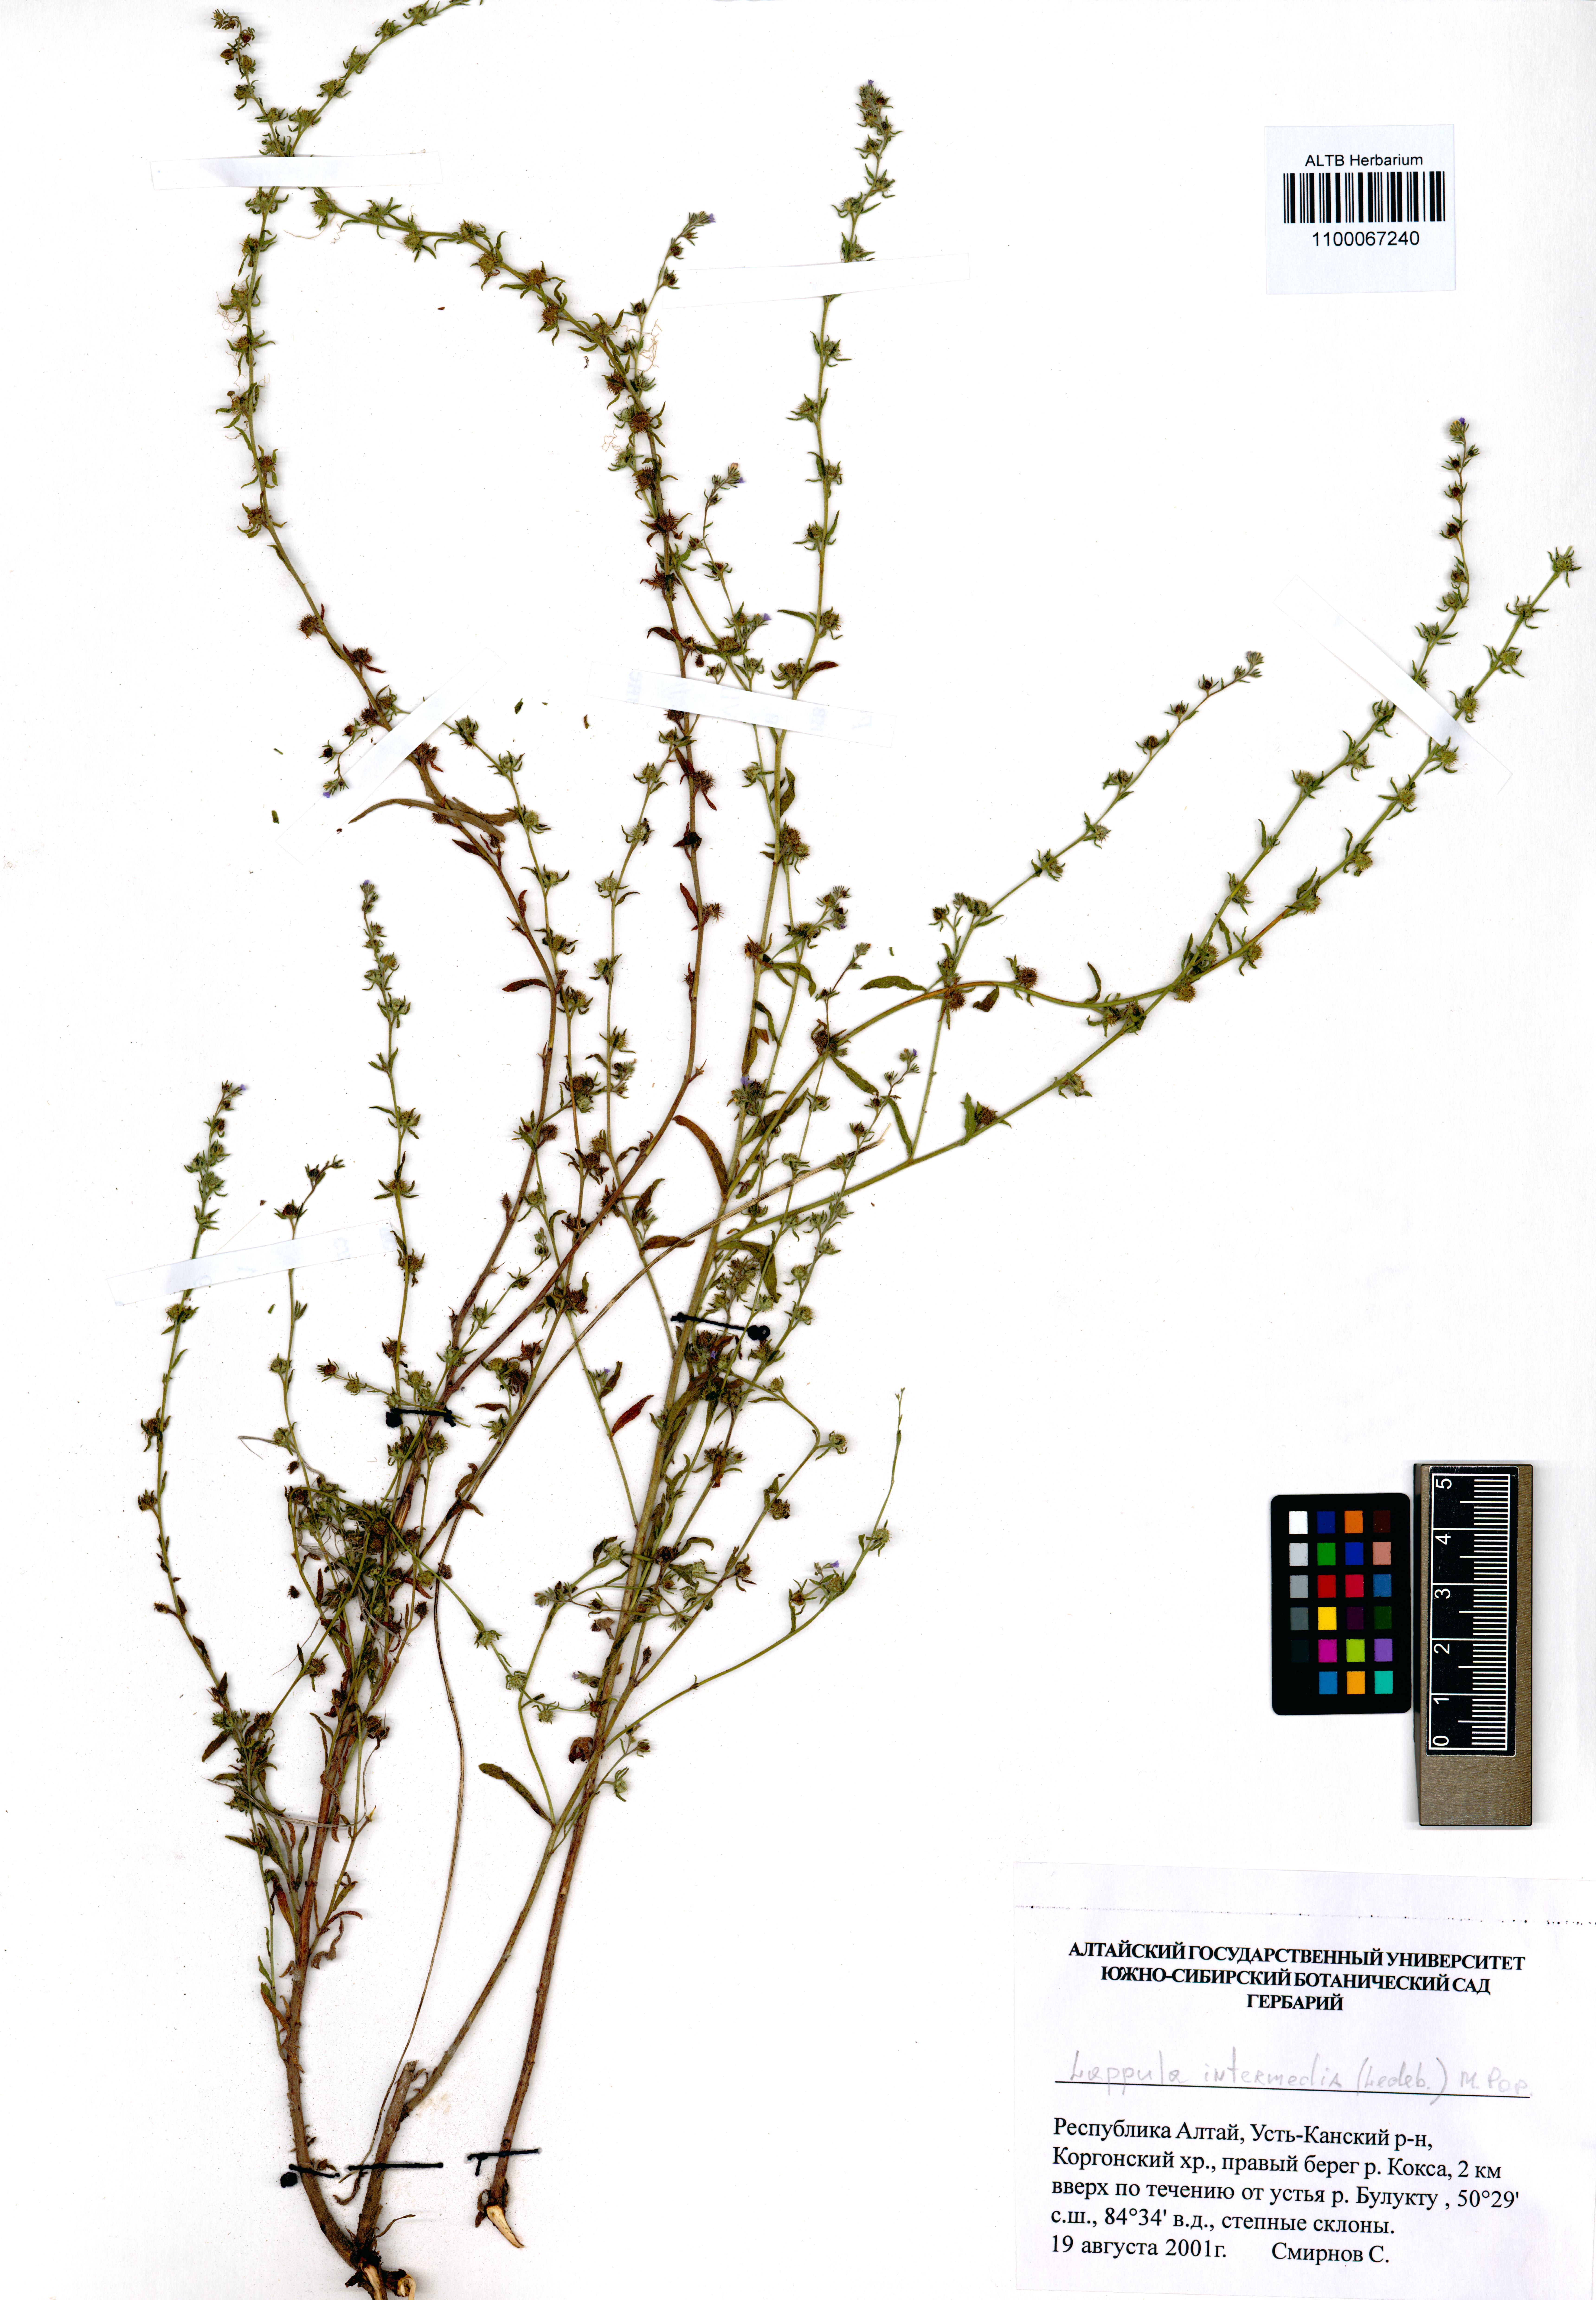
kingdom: Plantae
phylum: Tracheophyta
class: Magnoliopsida
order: Boraginales
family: Boraginaceae
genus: Lappula
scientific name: Lappula intermedia
